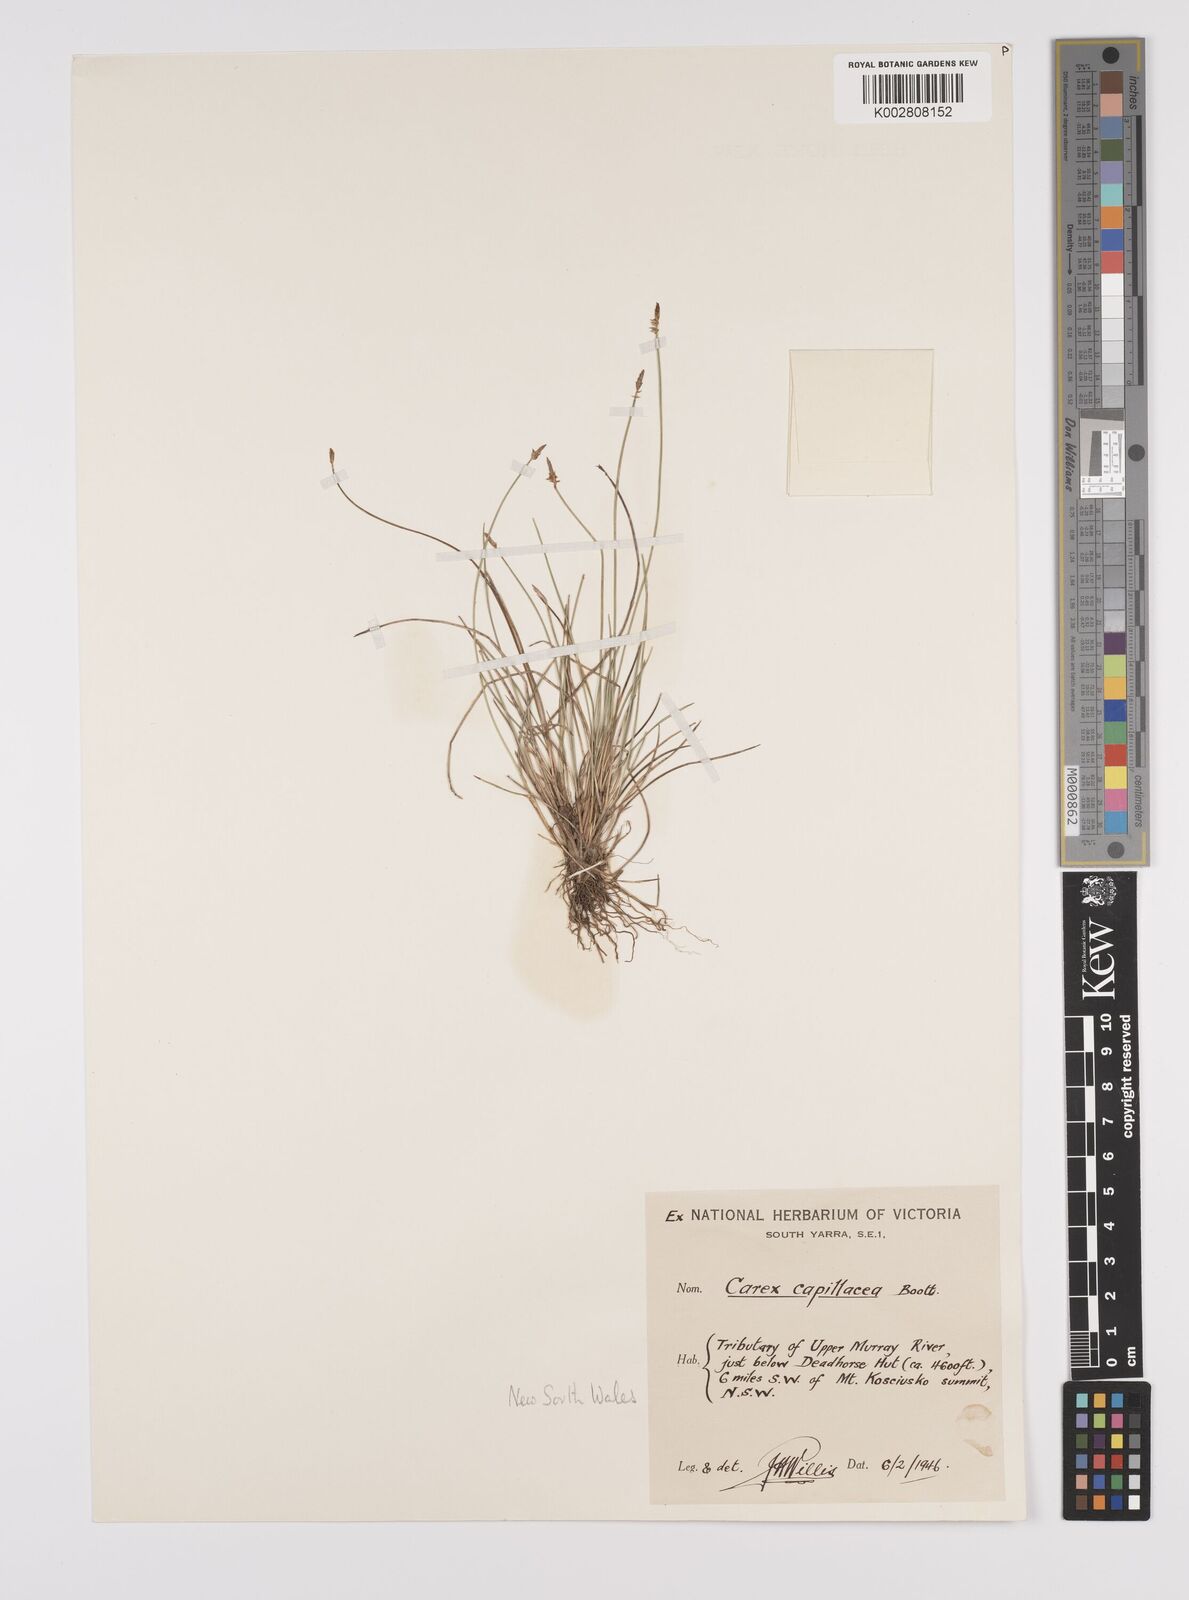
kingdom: Plantae
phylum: Tracheophyta
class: Liliopsida
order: Poales
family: Cyperaceae
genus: Carex
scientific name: Carex capillacea
